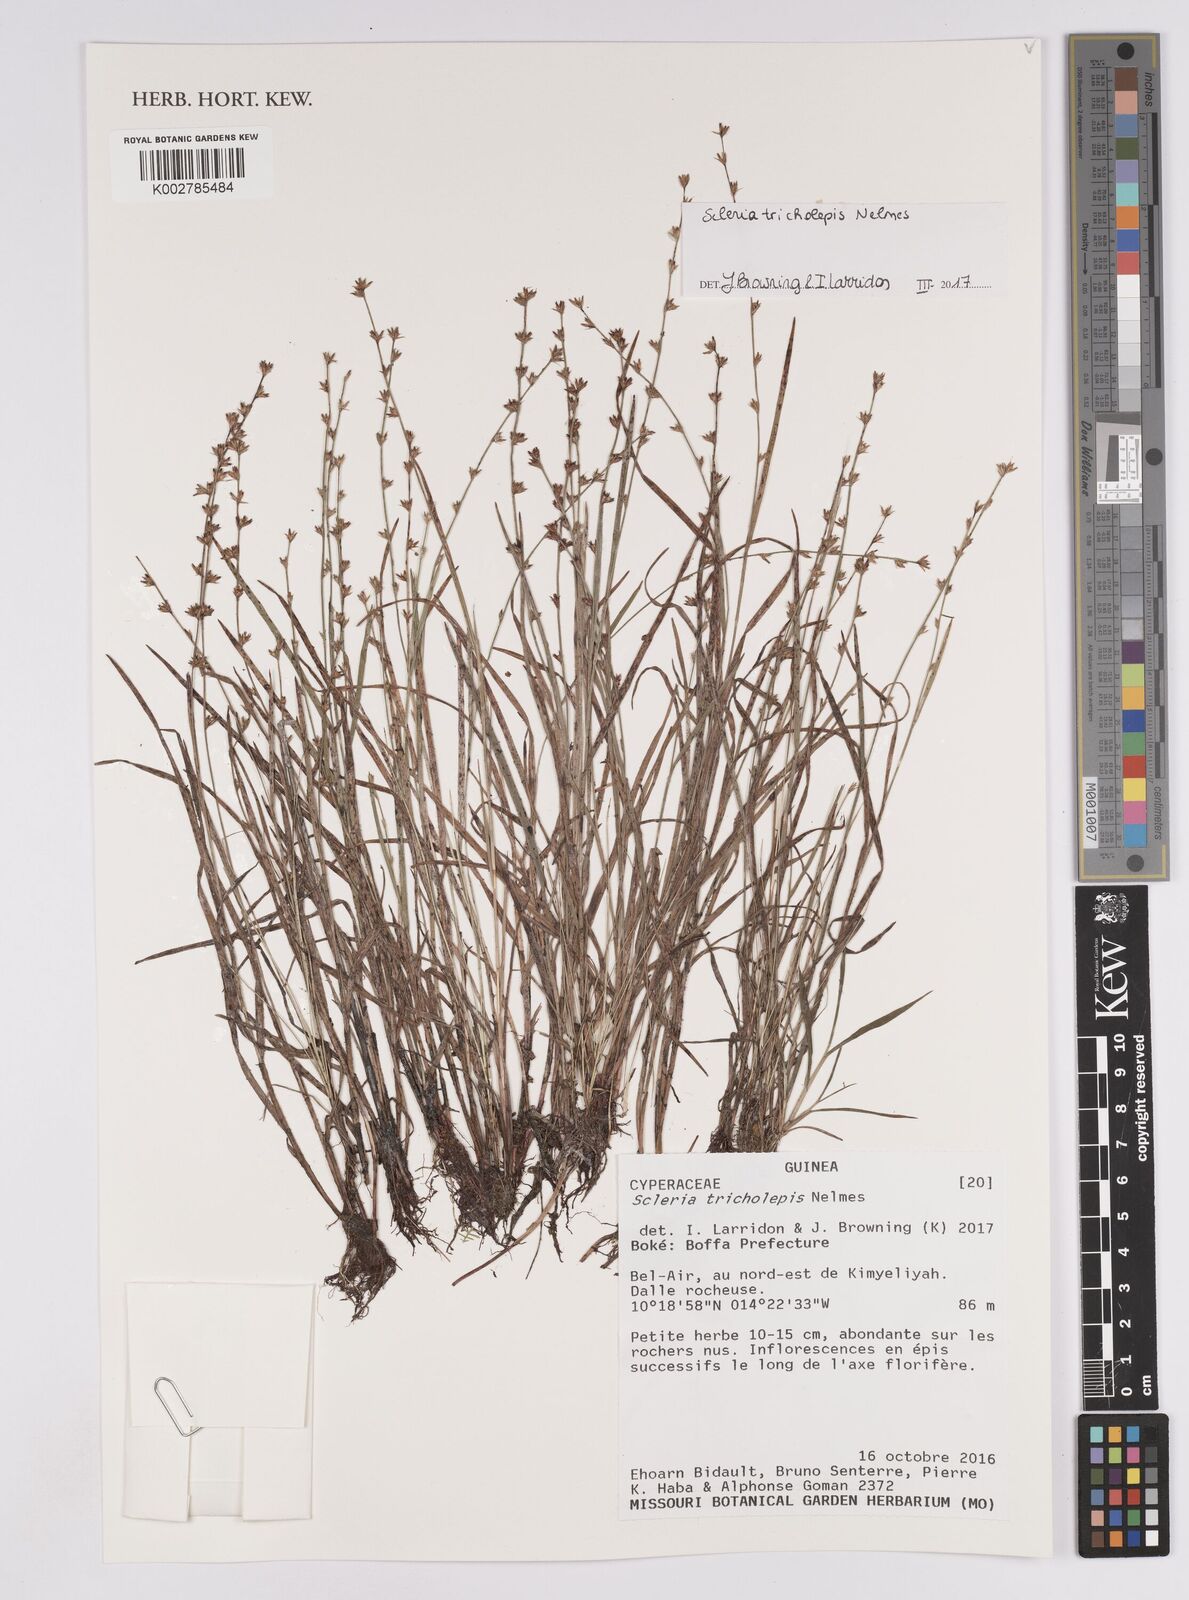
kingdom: Plantae
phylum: Tracheophyta
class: Liliopsida
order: Poales
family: Cyperaceae
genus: Scleria
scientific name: Scleria tricholepis
